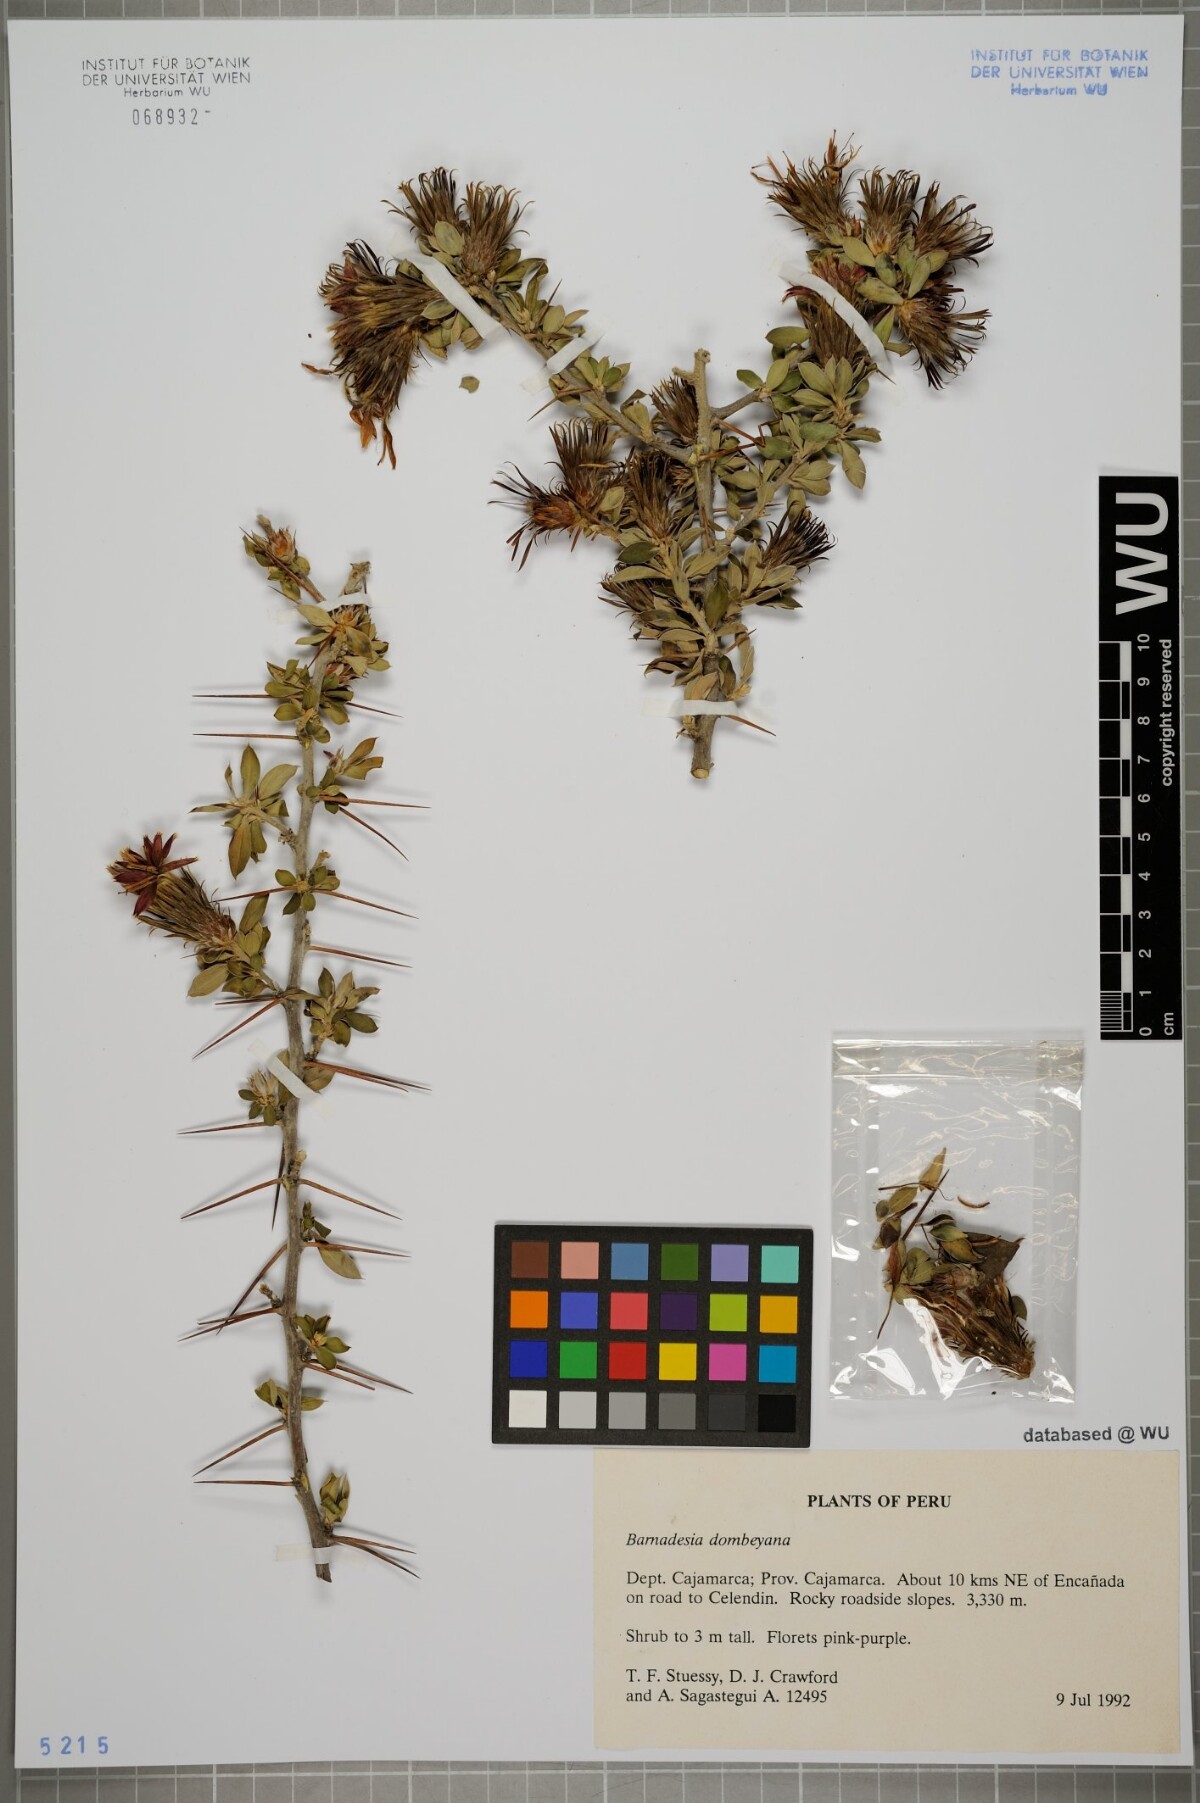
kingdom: Plantae
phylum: Tracheophyta
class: Magnoliopsida
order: Asterales
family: Asteraceae
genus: Barnadesia
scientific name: Barnadesia dombeyana
